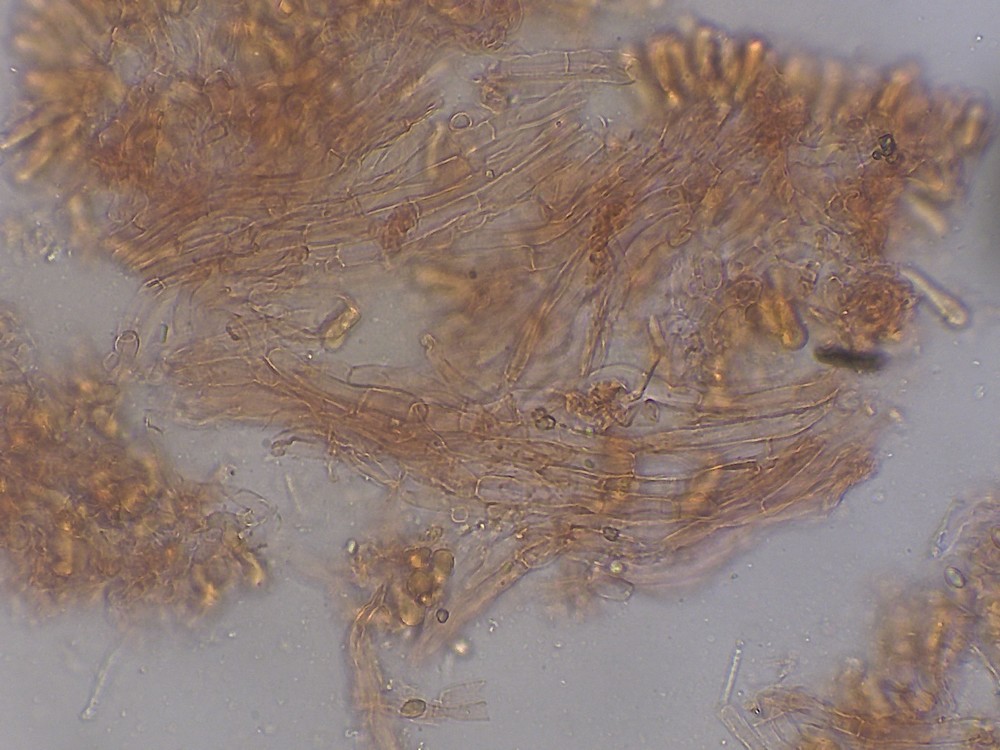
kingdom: Fungi
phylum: Basidiomycota
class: Agaricomycetes
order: Agaricales
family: Hygrophoraceae
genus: Arrhenia
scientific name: Arrhenia
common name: fontænehat
